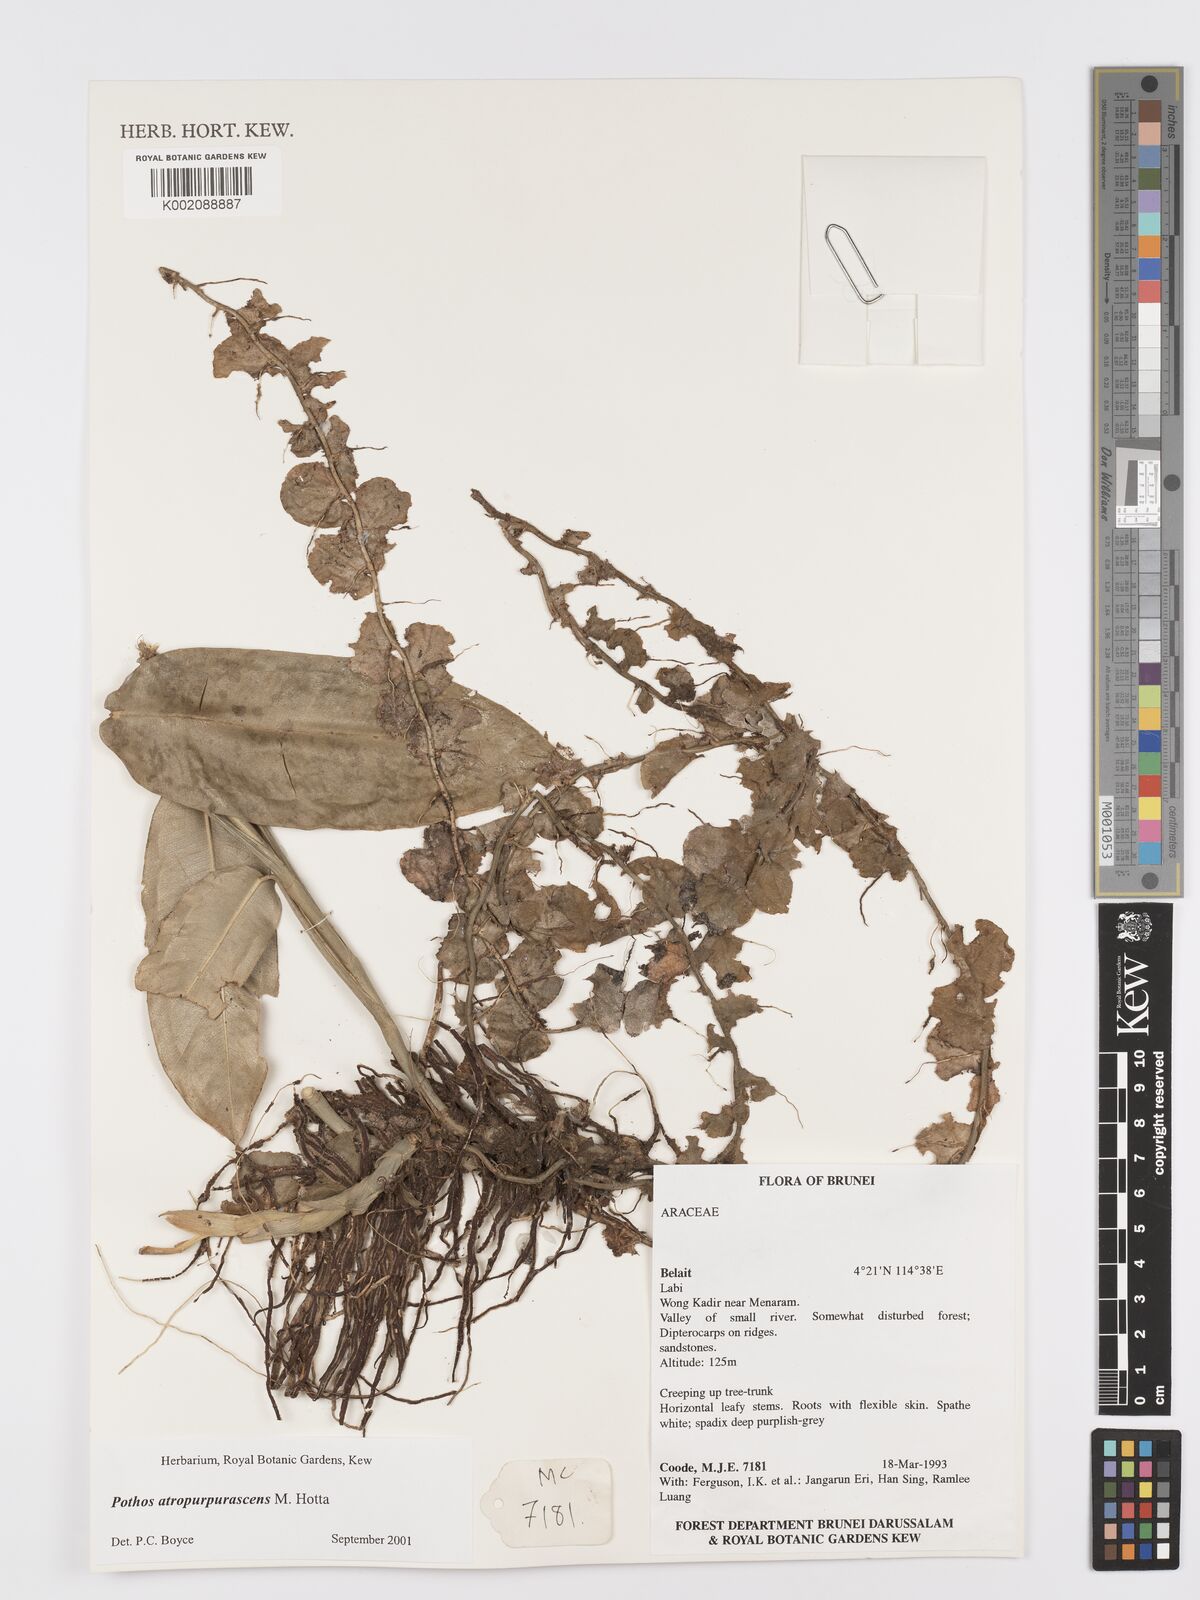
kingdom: Plantae
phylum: Tracheophyta
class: Liliopsida
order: Alismatales
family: Araceae
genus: Pothos
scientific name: Pothos atropurpurascens
